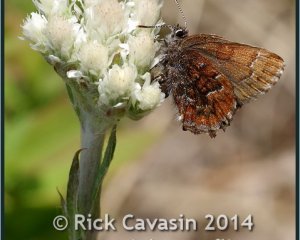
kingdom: Animalia
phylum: Arthropoda
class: Insecta
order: Lepidoptera
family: Lycaenidae
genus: Incisalia
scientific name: Incisalia niphon
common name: Eastern Pine Elfin
